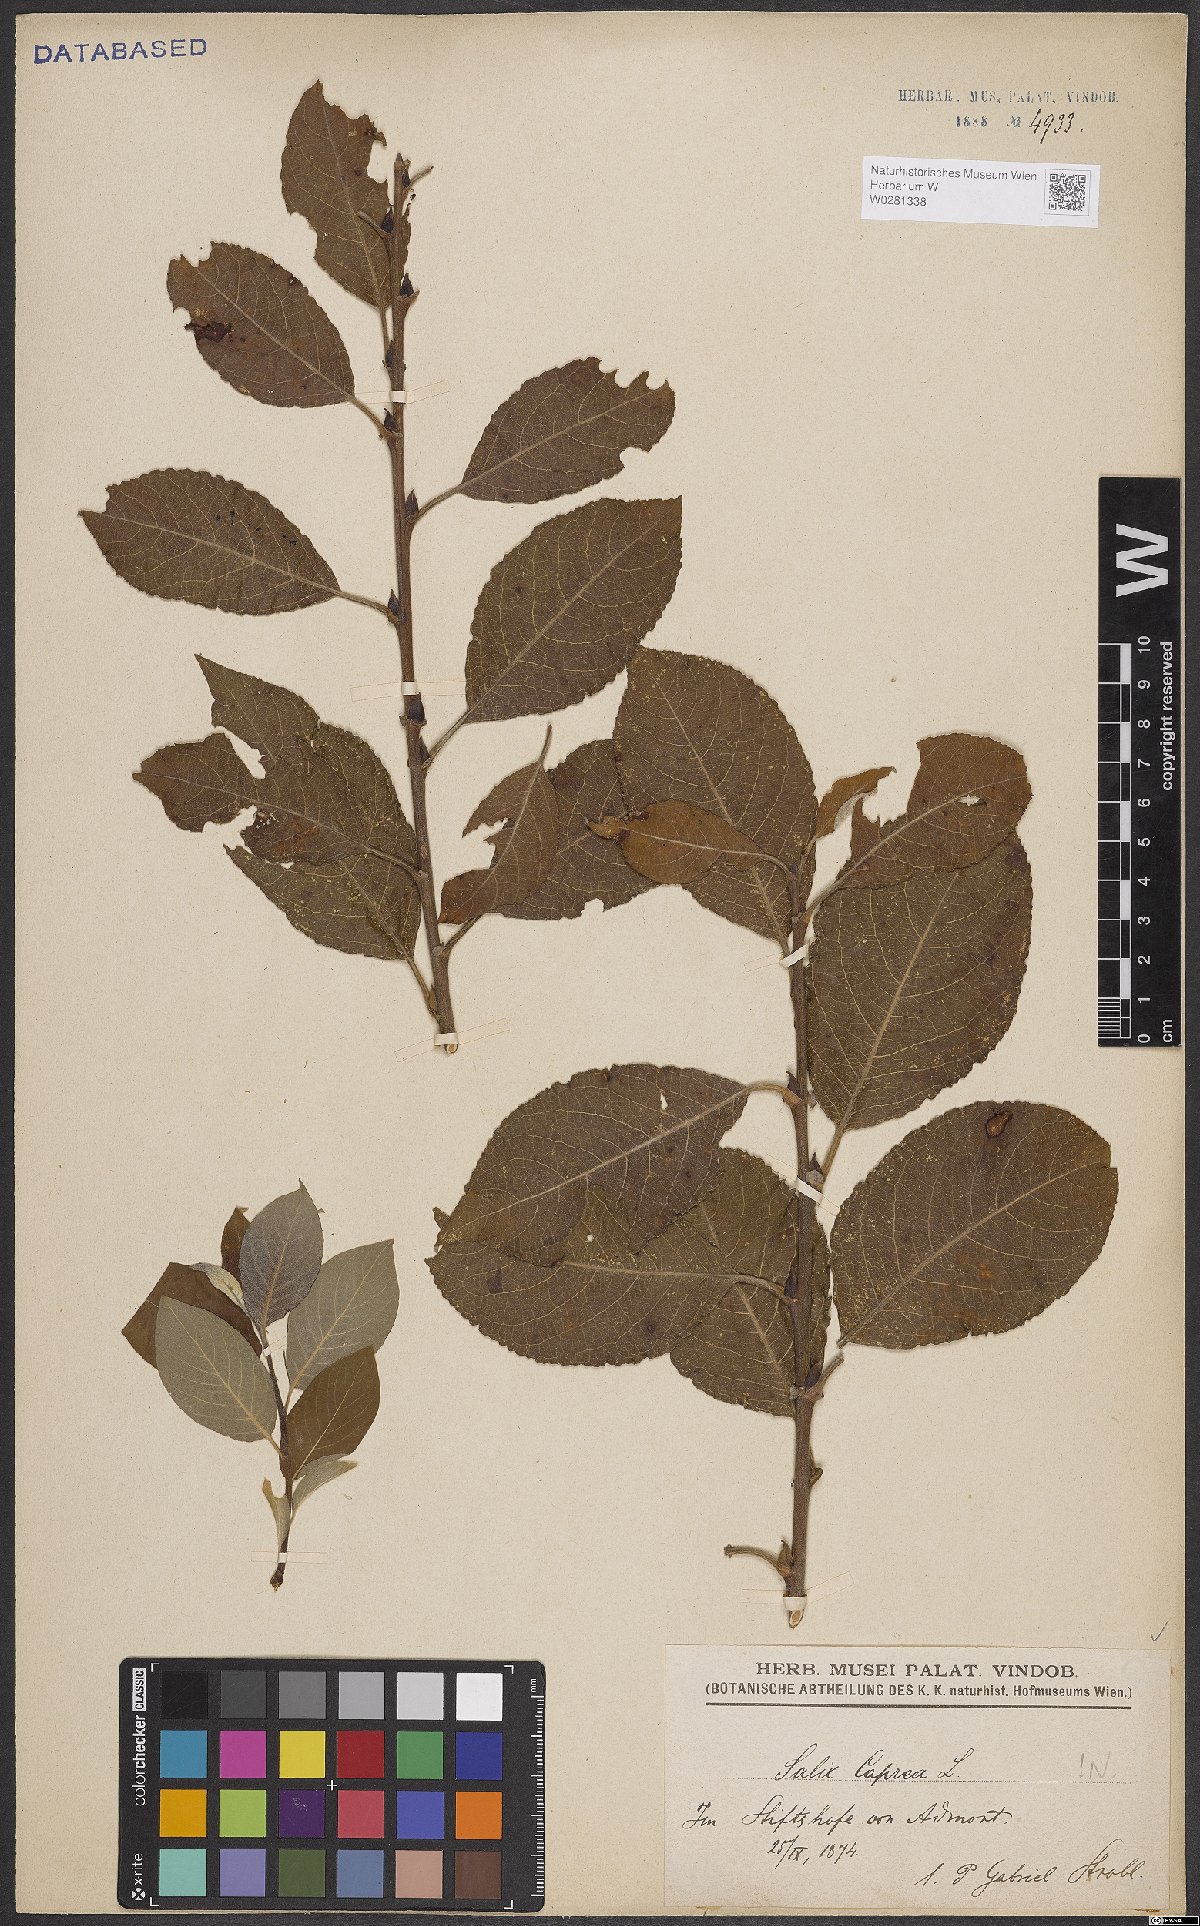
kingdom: Plantae
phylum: Tracheophyta
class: Magnoliopsida
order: Malpighiales
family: Salicaceae
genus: Salix
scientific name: Salix caprea
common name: Goat willow
